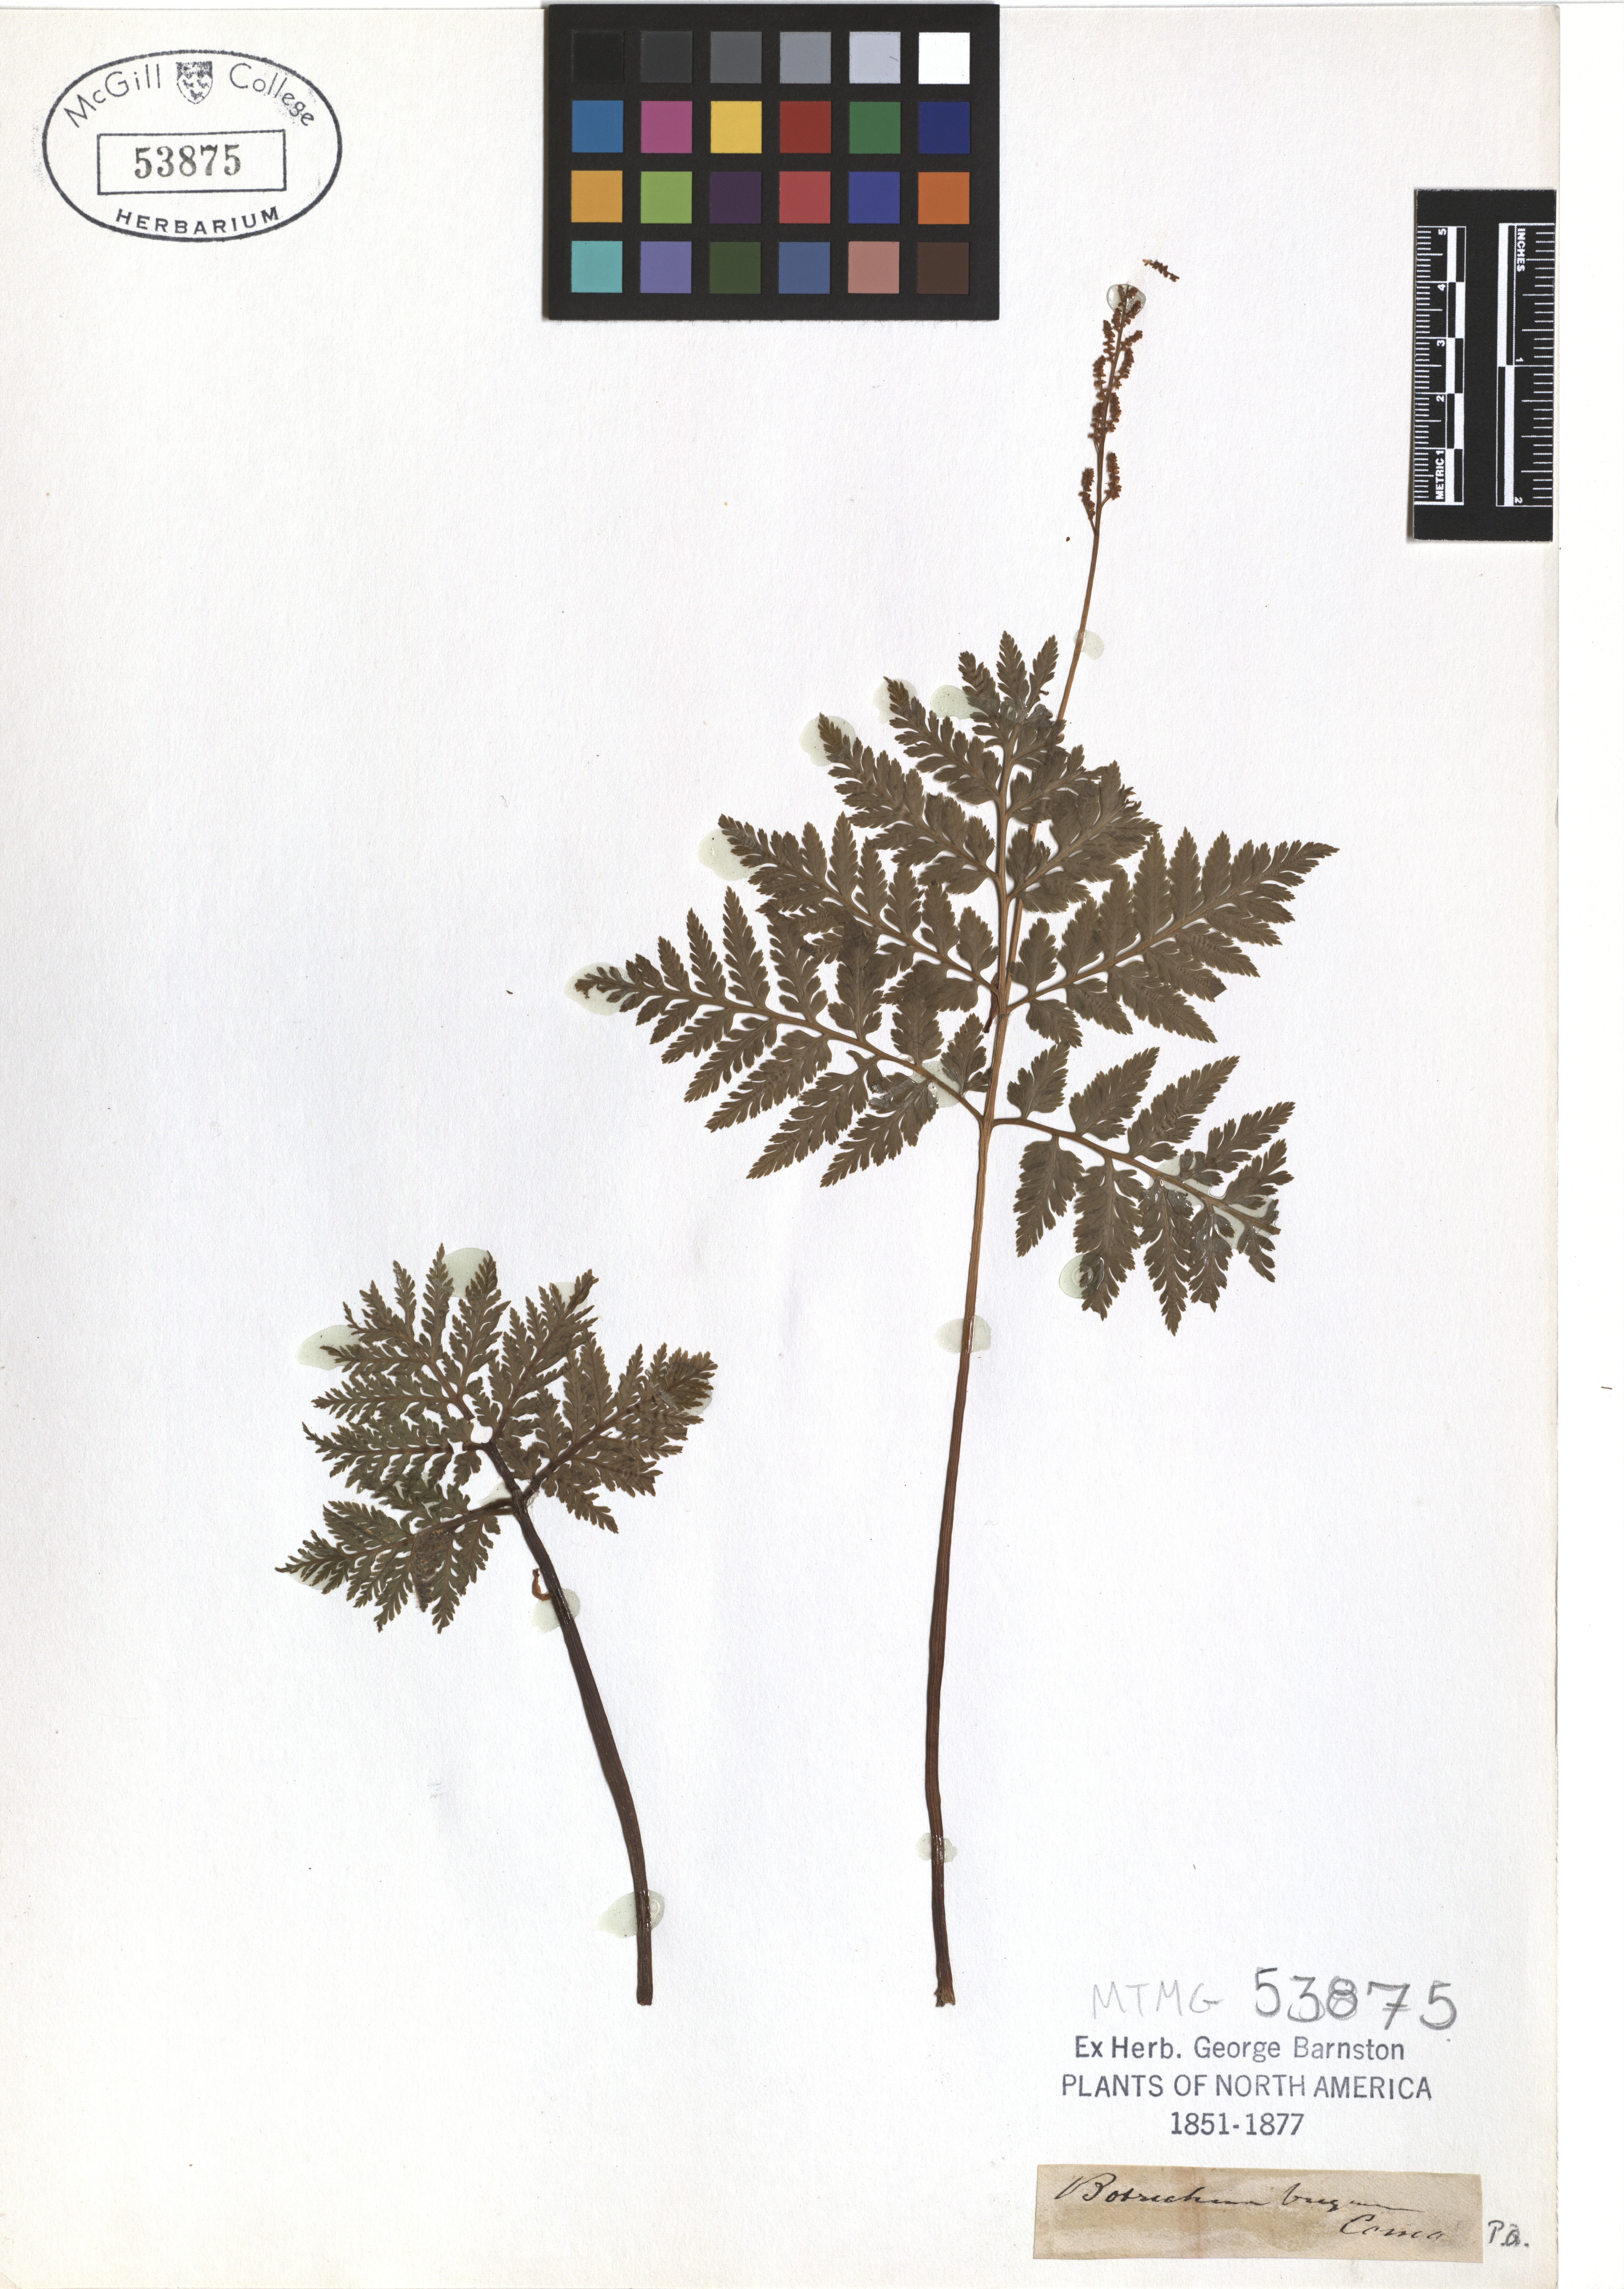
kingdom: Plantae
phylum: Tracheophyta
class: Polypodiopsida
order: Ophioglossales
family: Ophioglossaceae
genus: Botrypus
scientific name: Botrypus virginianus
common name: Common grapefern
